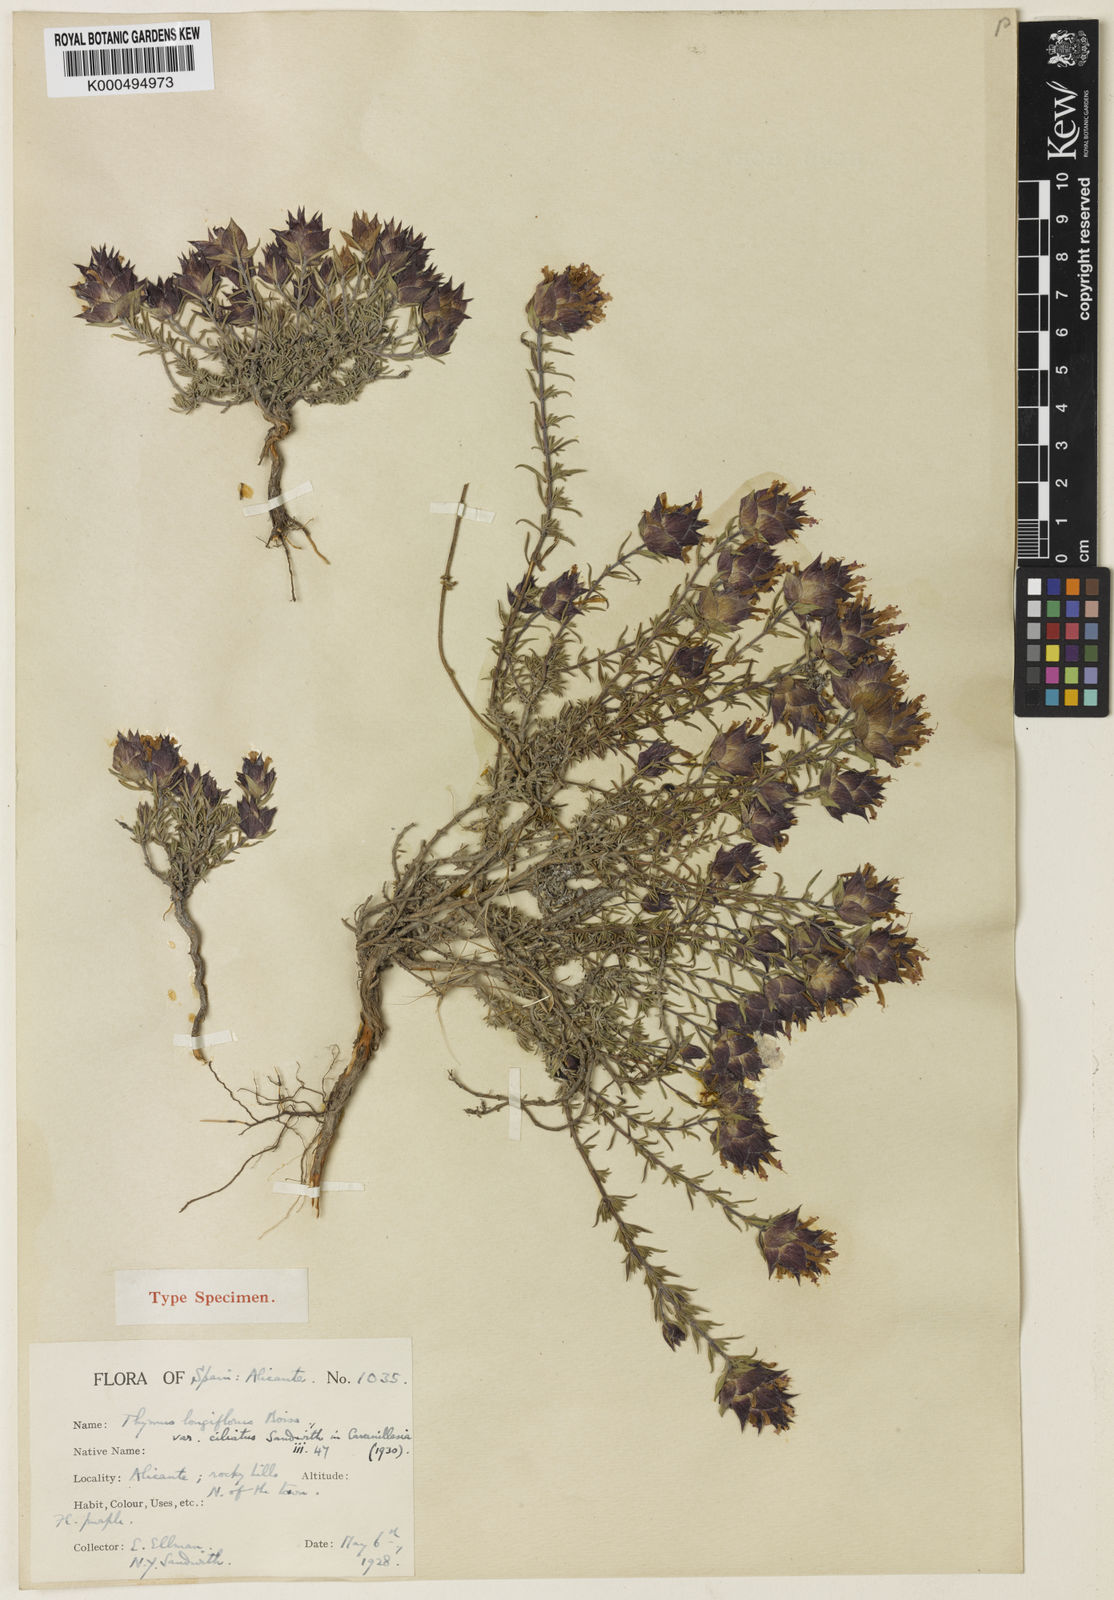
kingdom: Plantae
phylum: Tracheophyta
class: Magnoliopsida
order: Lamiales
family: Lamiaceae
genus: Thymus
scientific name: Thymus longiflorus
